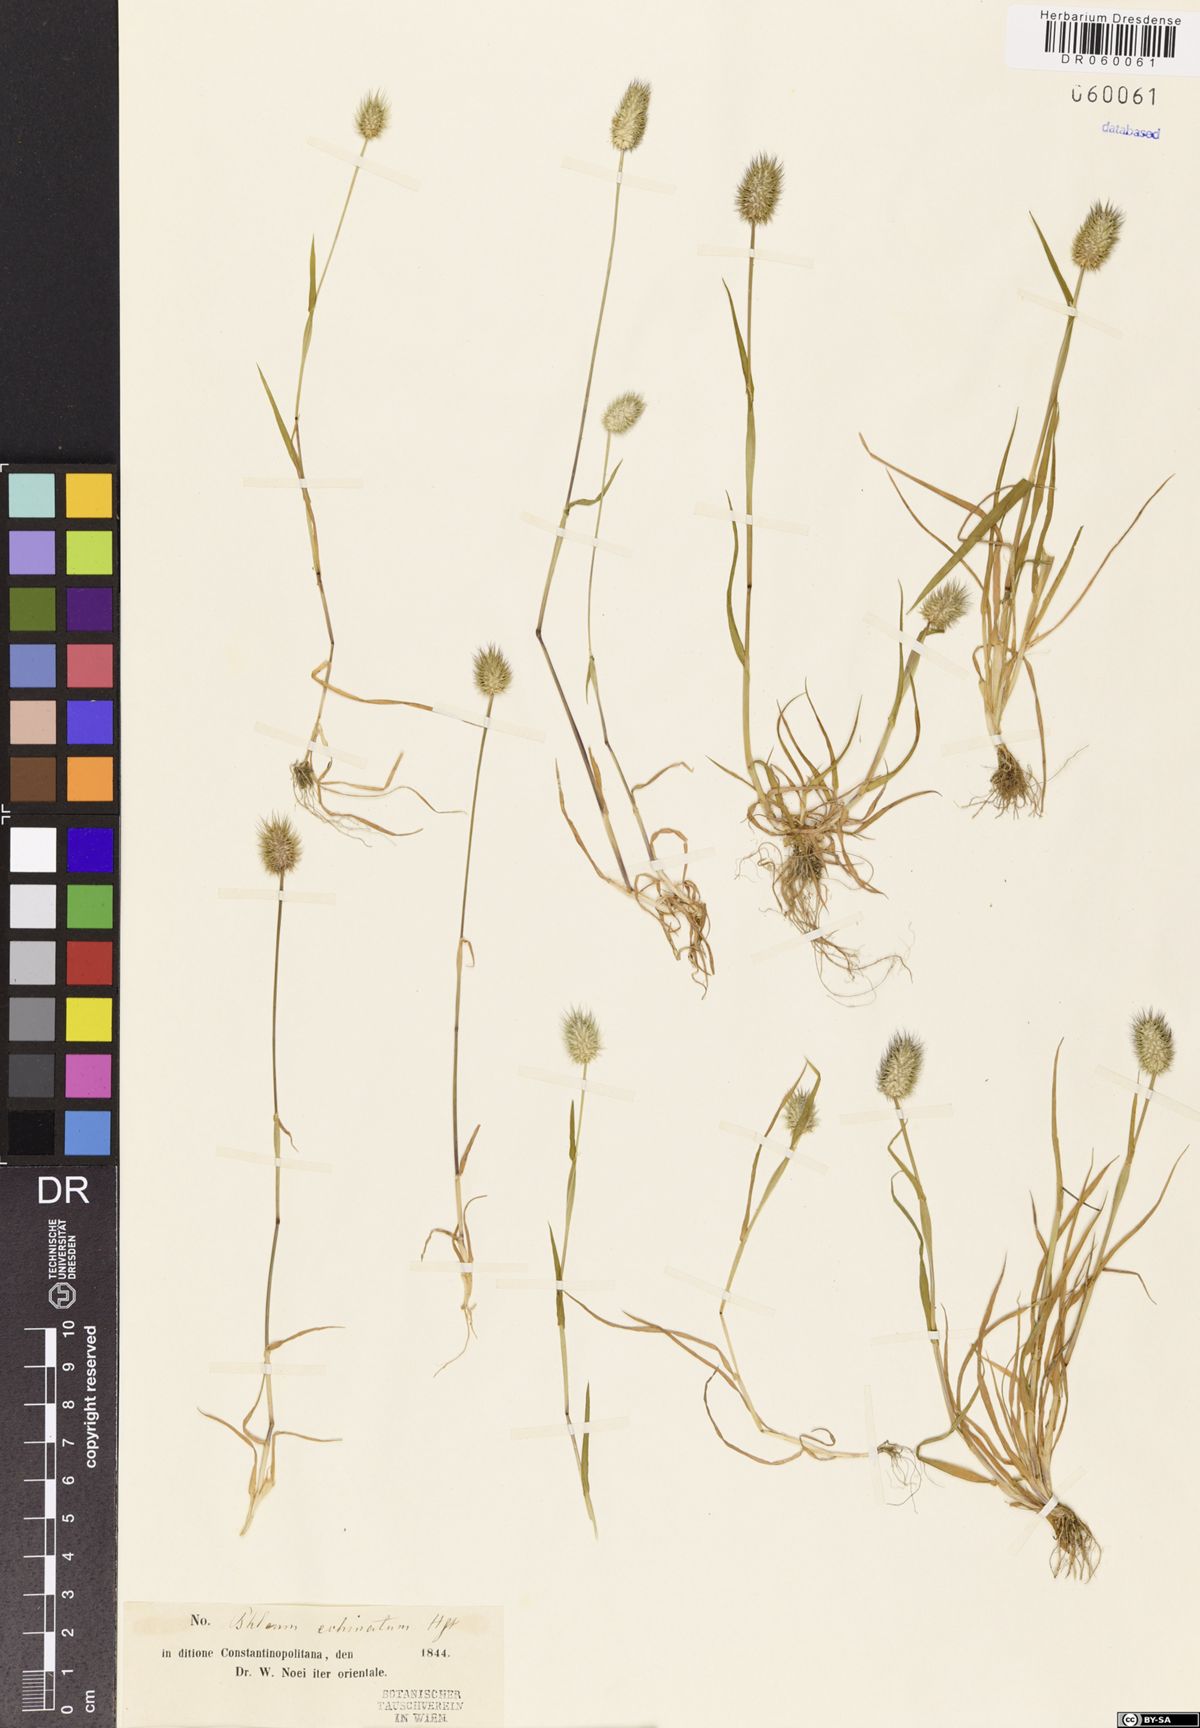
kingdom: Plantae
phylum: Tracheophyta
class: Liliopsida
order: Poales
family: Poaceae
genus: Phleum
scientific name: Phleum echinatum
